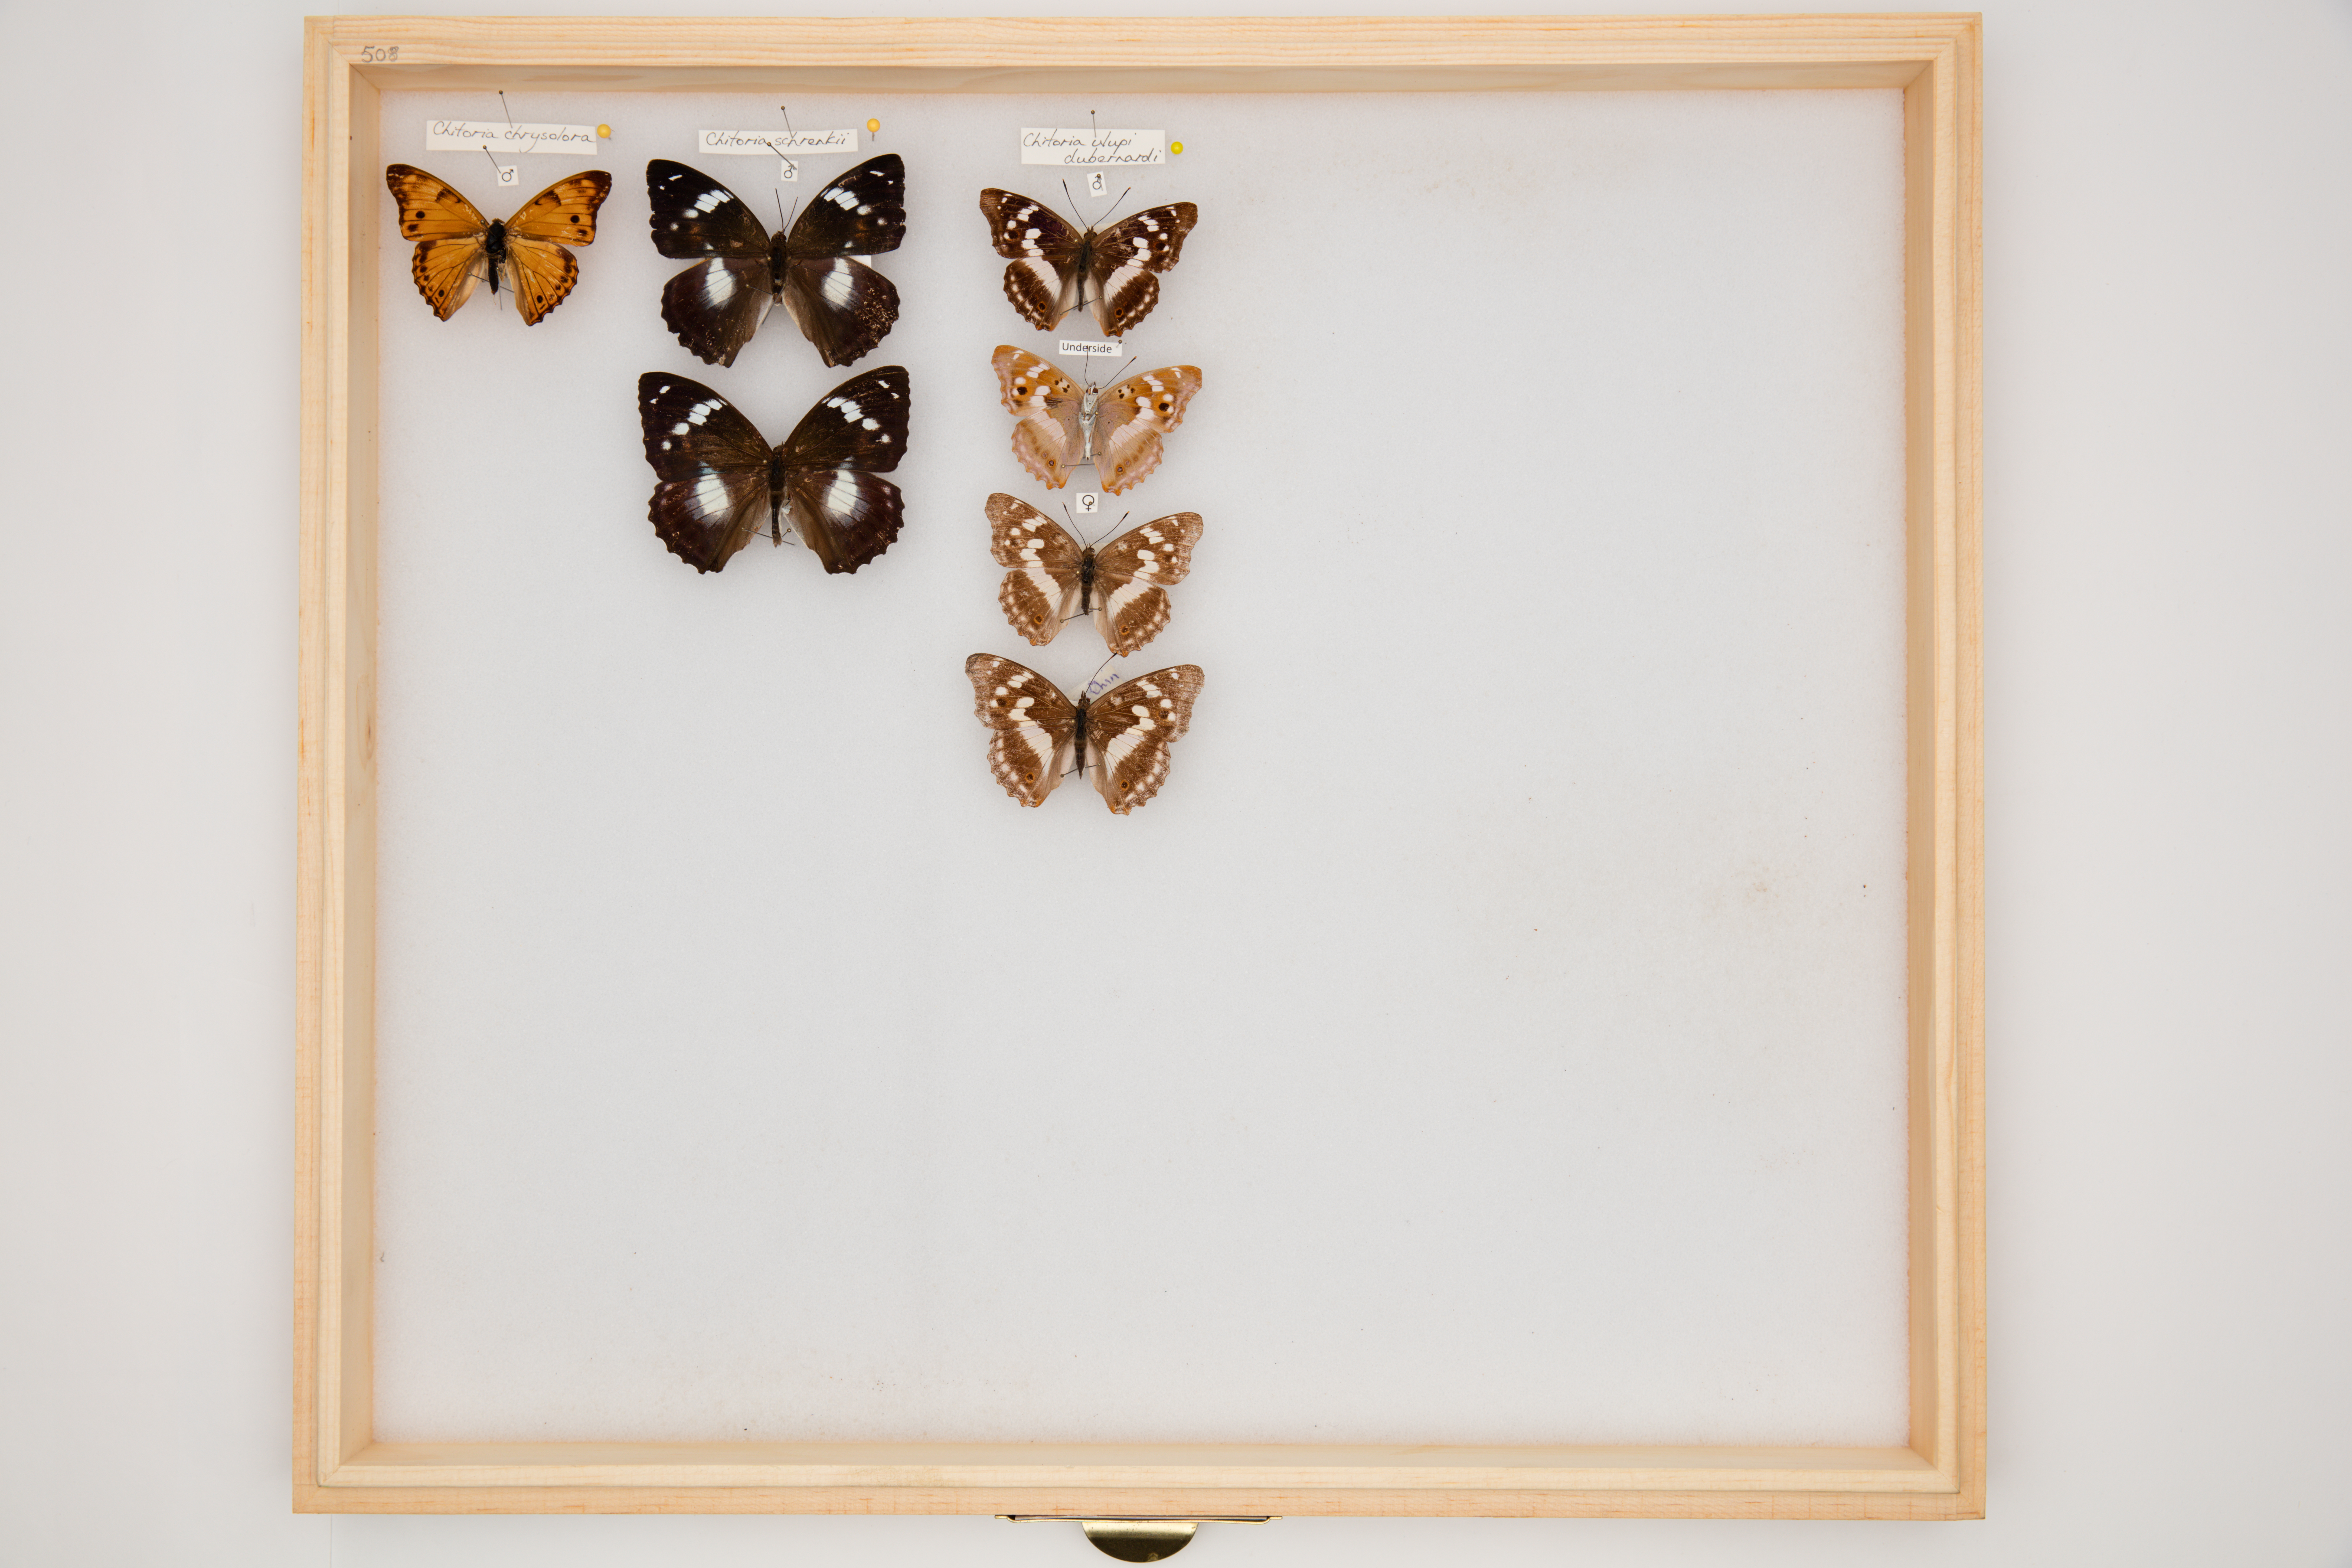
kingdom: Animalia
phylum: Arthropoda
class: Insecta
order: Lepidoptera
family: Nymphalidae
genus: Apatura
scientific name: Apatura Chitoria chrysolora
